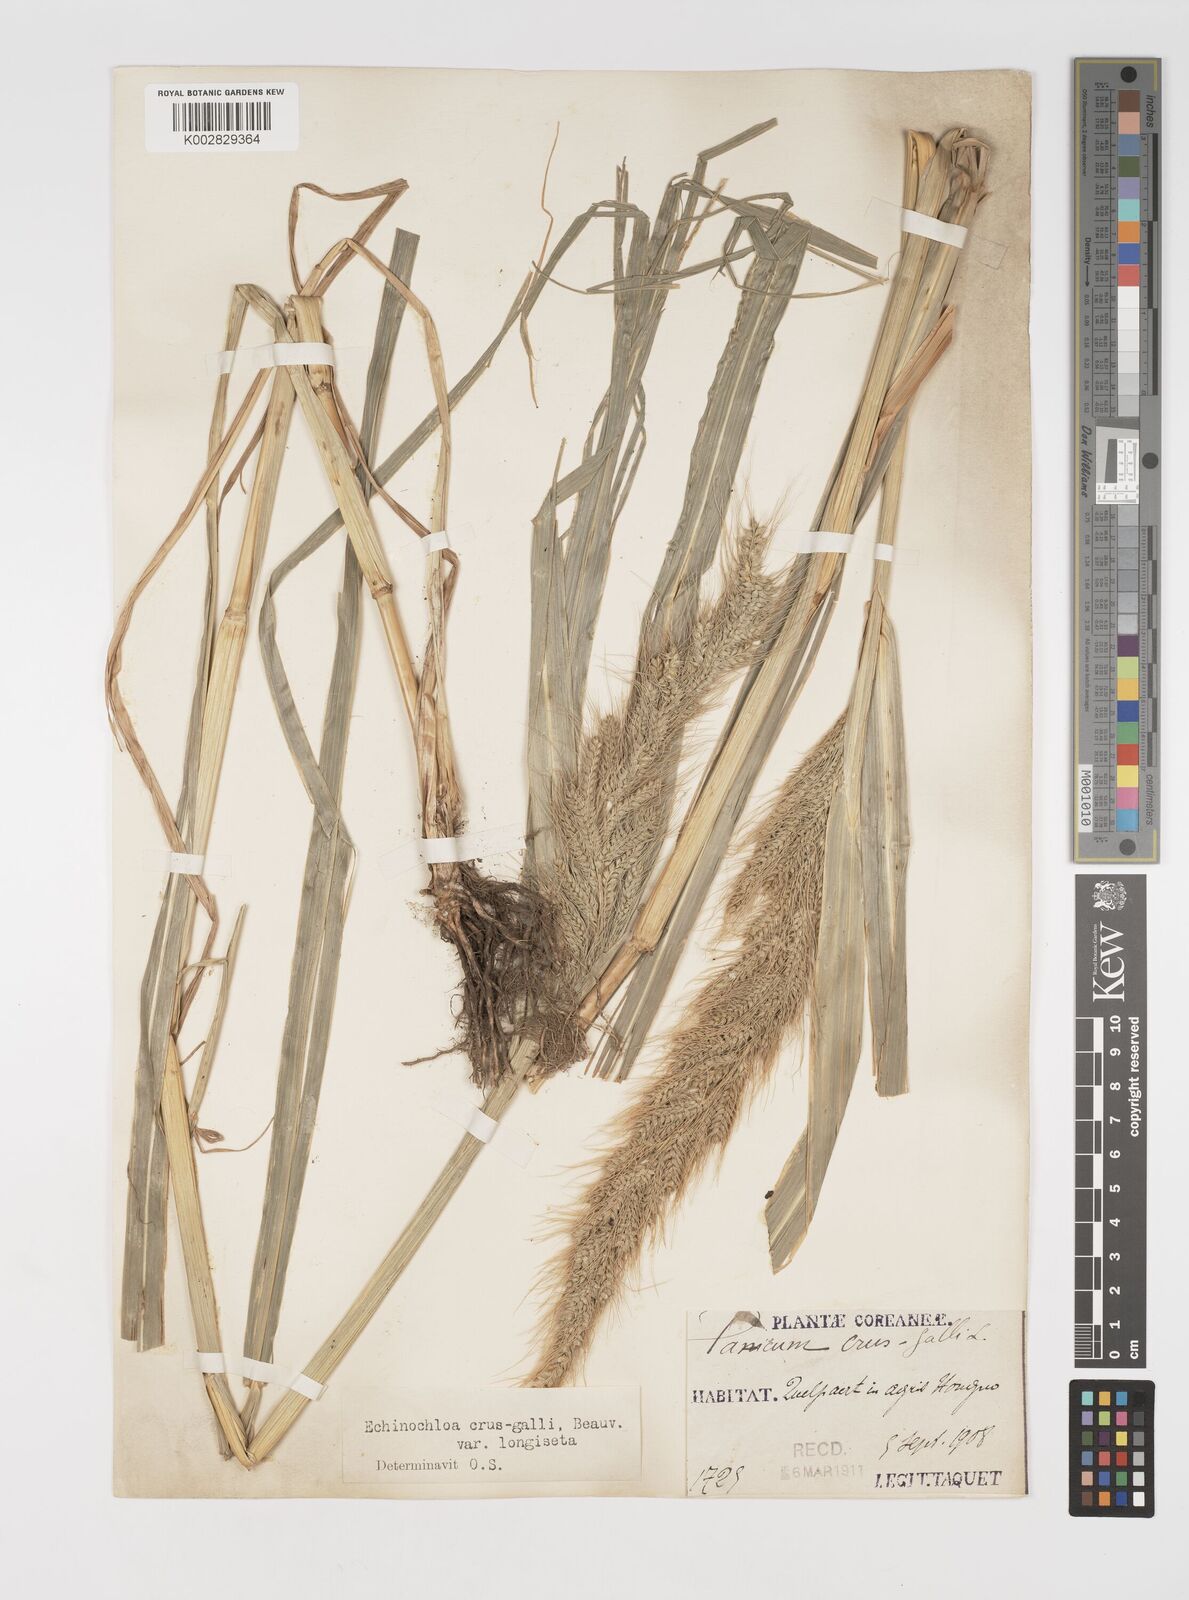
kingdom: Plantae
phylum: Tracheophyta
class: Liliopsida
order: Poales
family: Poaceae
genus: Echinochloa
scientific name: Echinochloa crus-galli
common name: Cockspur
